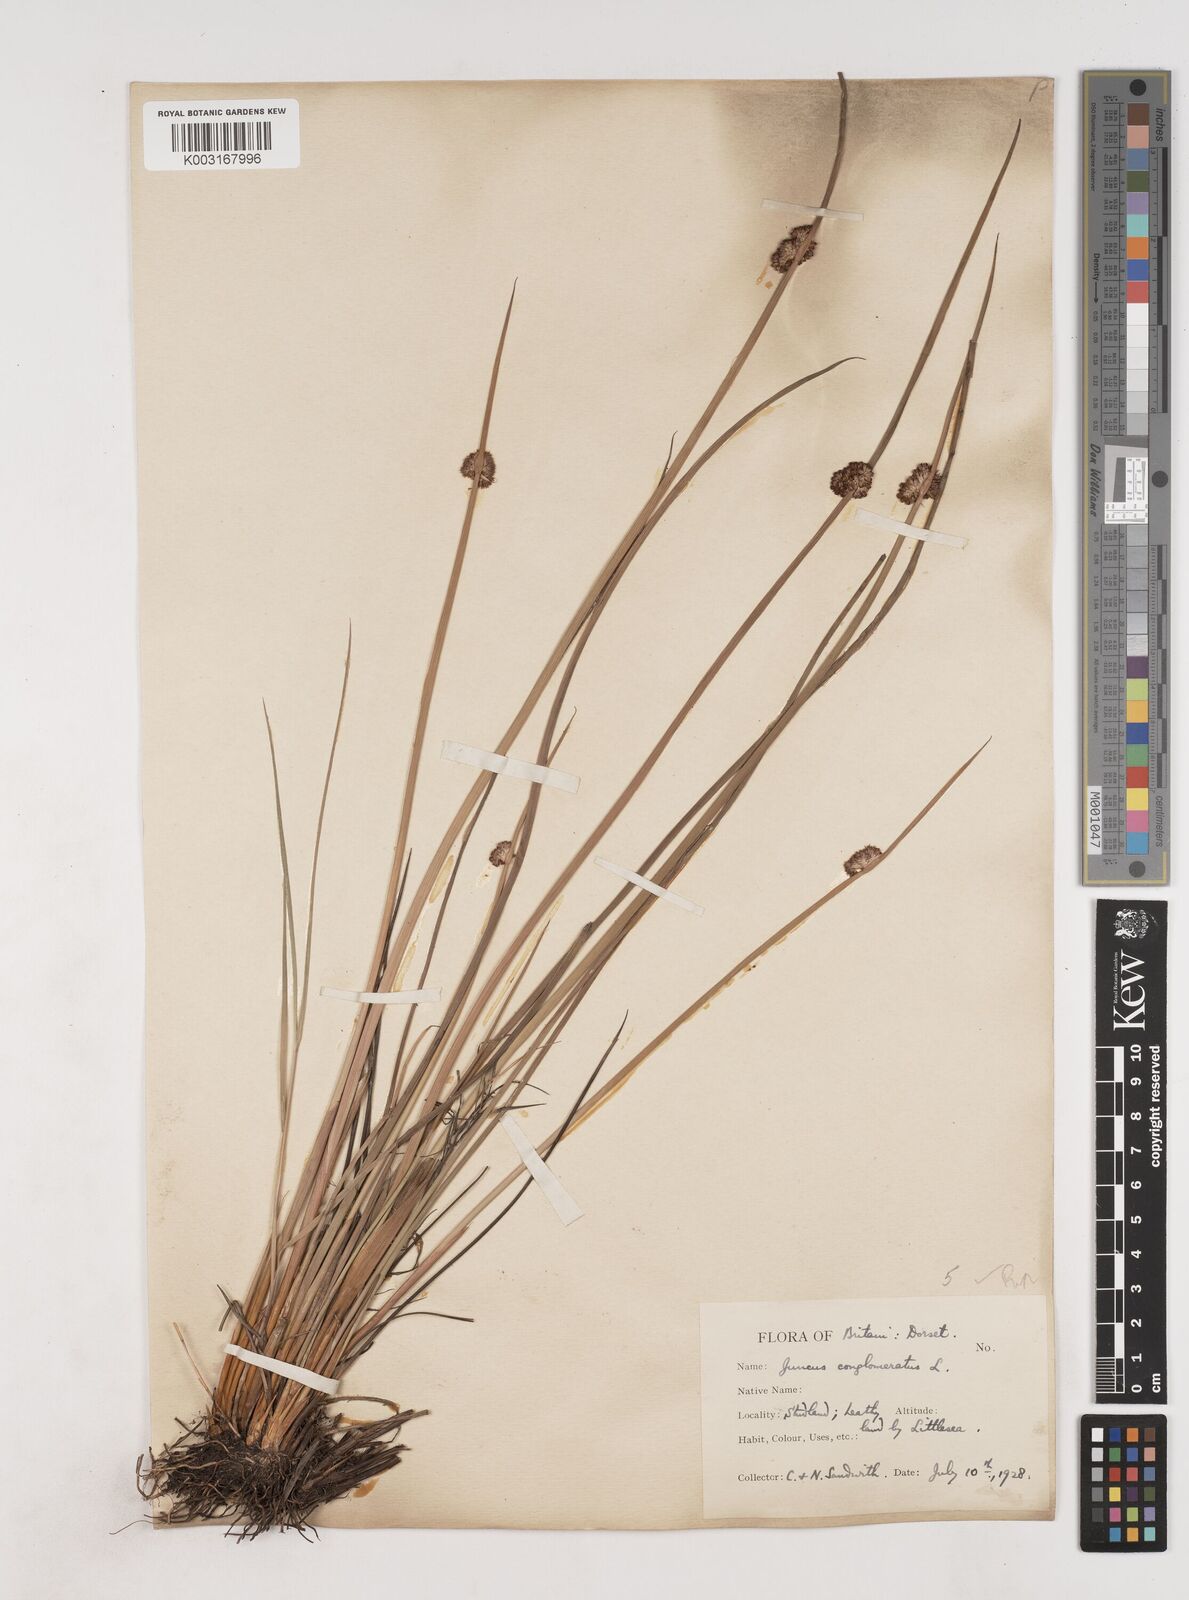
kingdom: Plantae
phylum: Tracheophyta
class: Liliopsida
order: Poales
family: Juncaceae
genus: Juncus
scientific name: Juncus conglomeratus
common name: Compact rush
